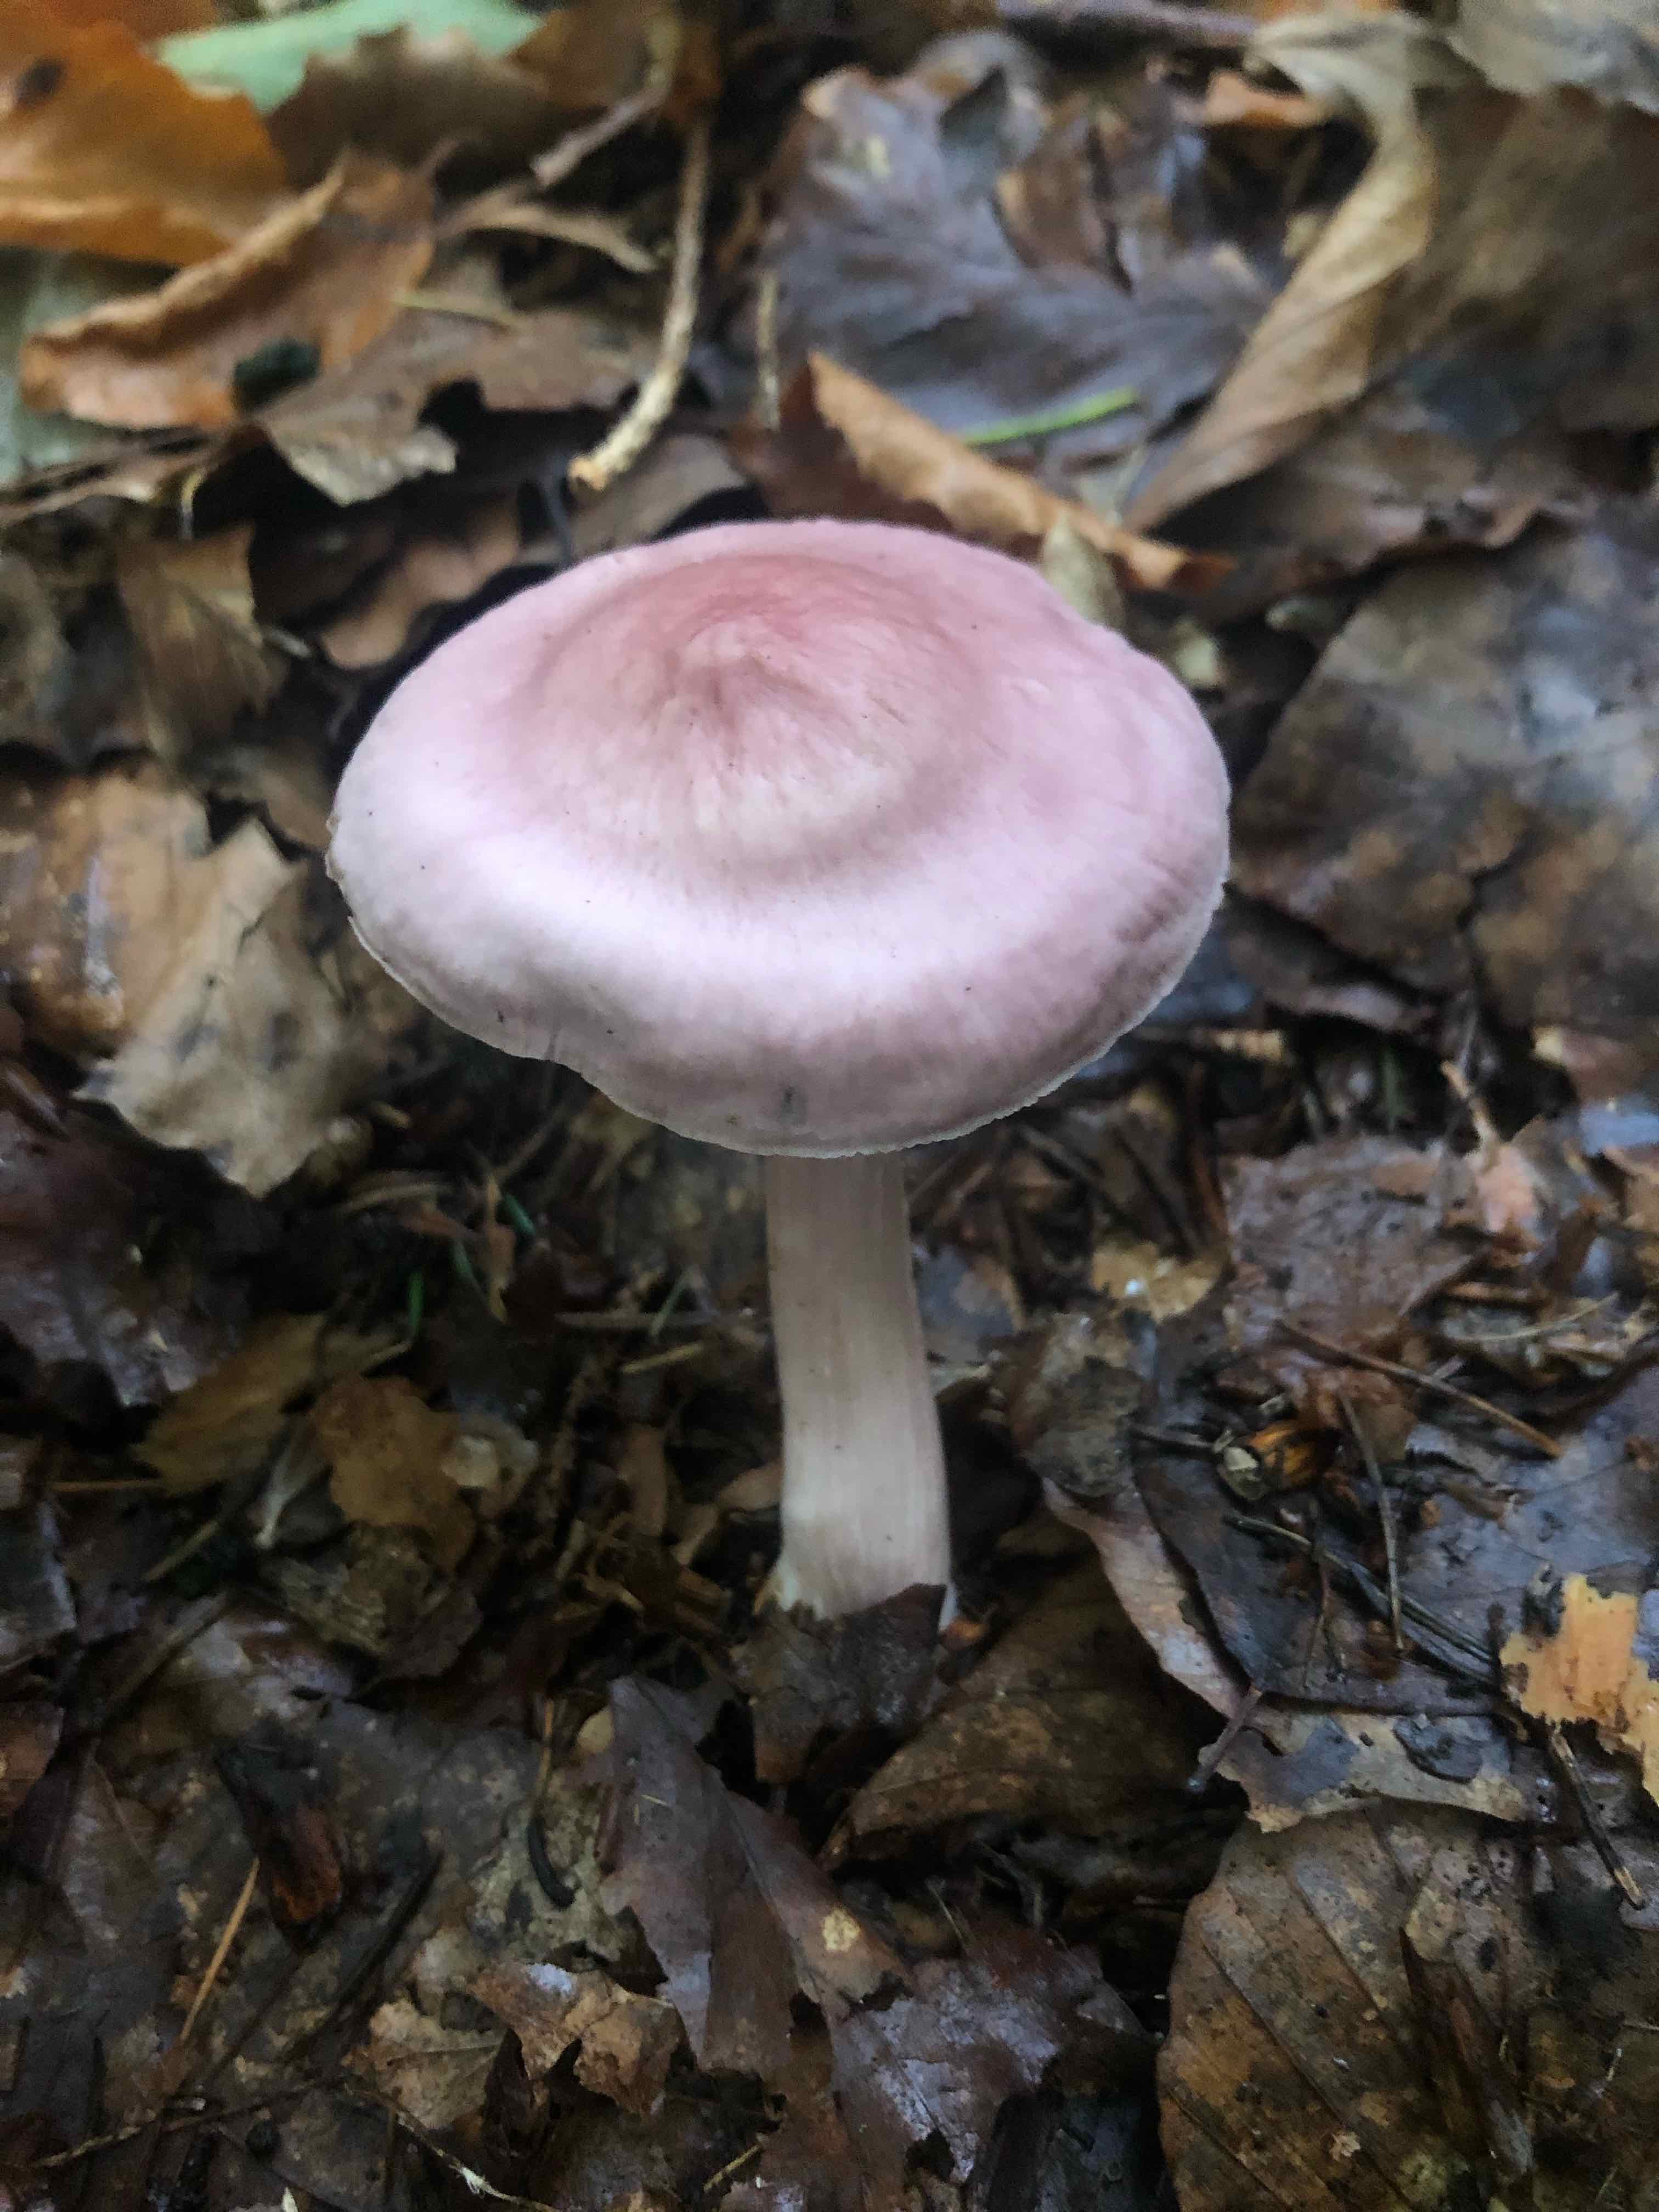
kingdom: Fungi
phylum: Basidiomycota
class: Agaricomycetes
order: Agaricales
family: Mycenaceae
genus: Mycena
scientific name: Mycena rosea
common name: rosa huesvamp
